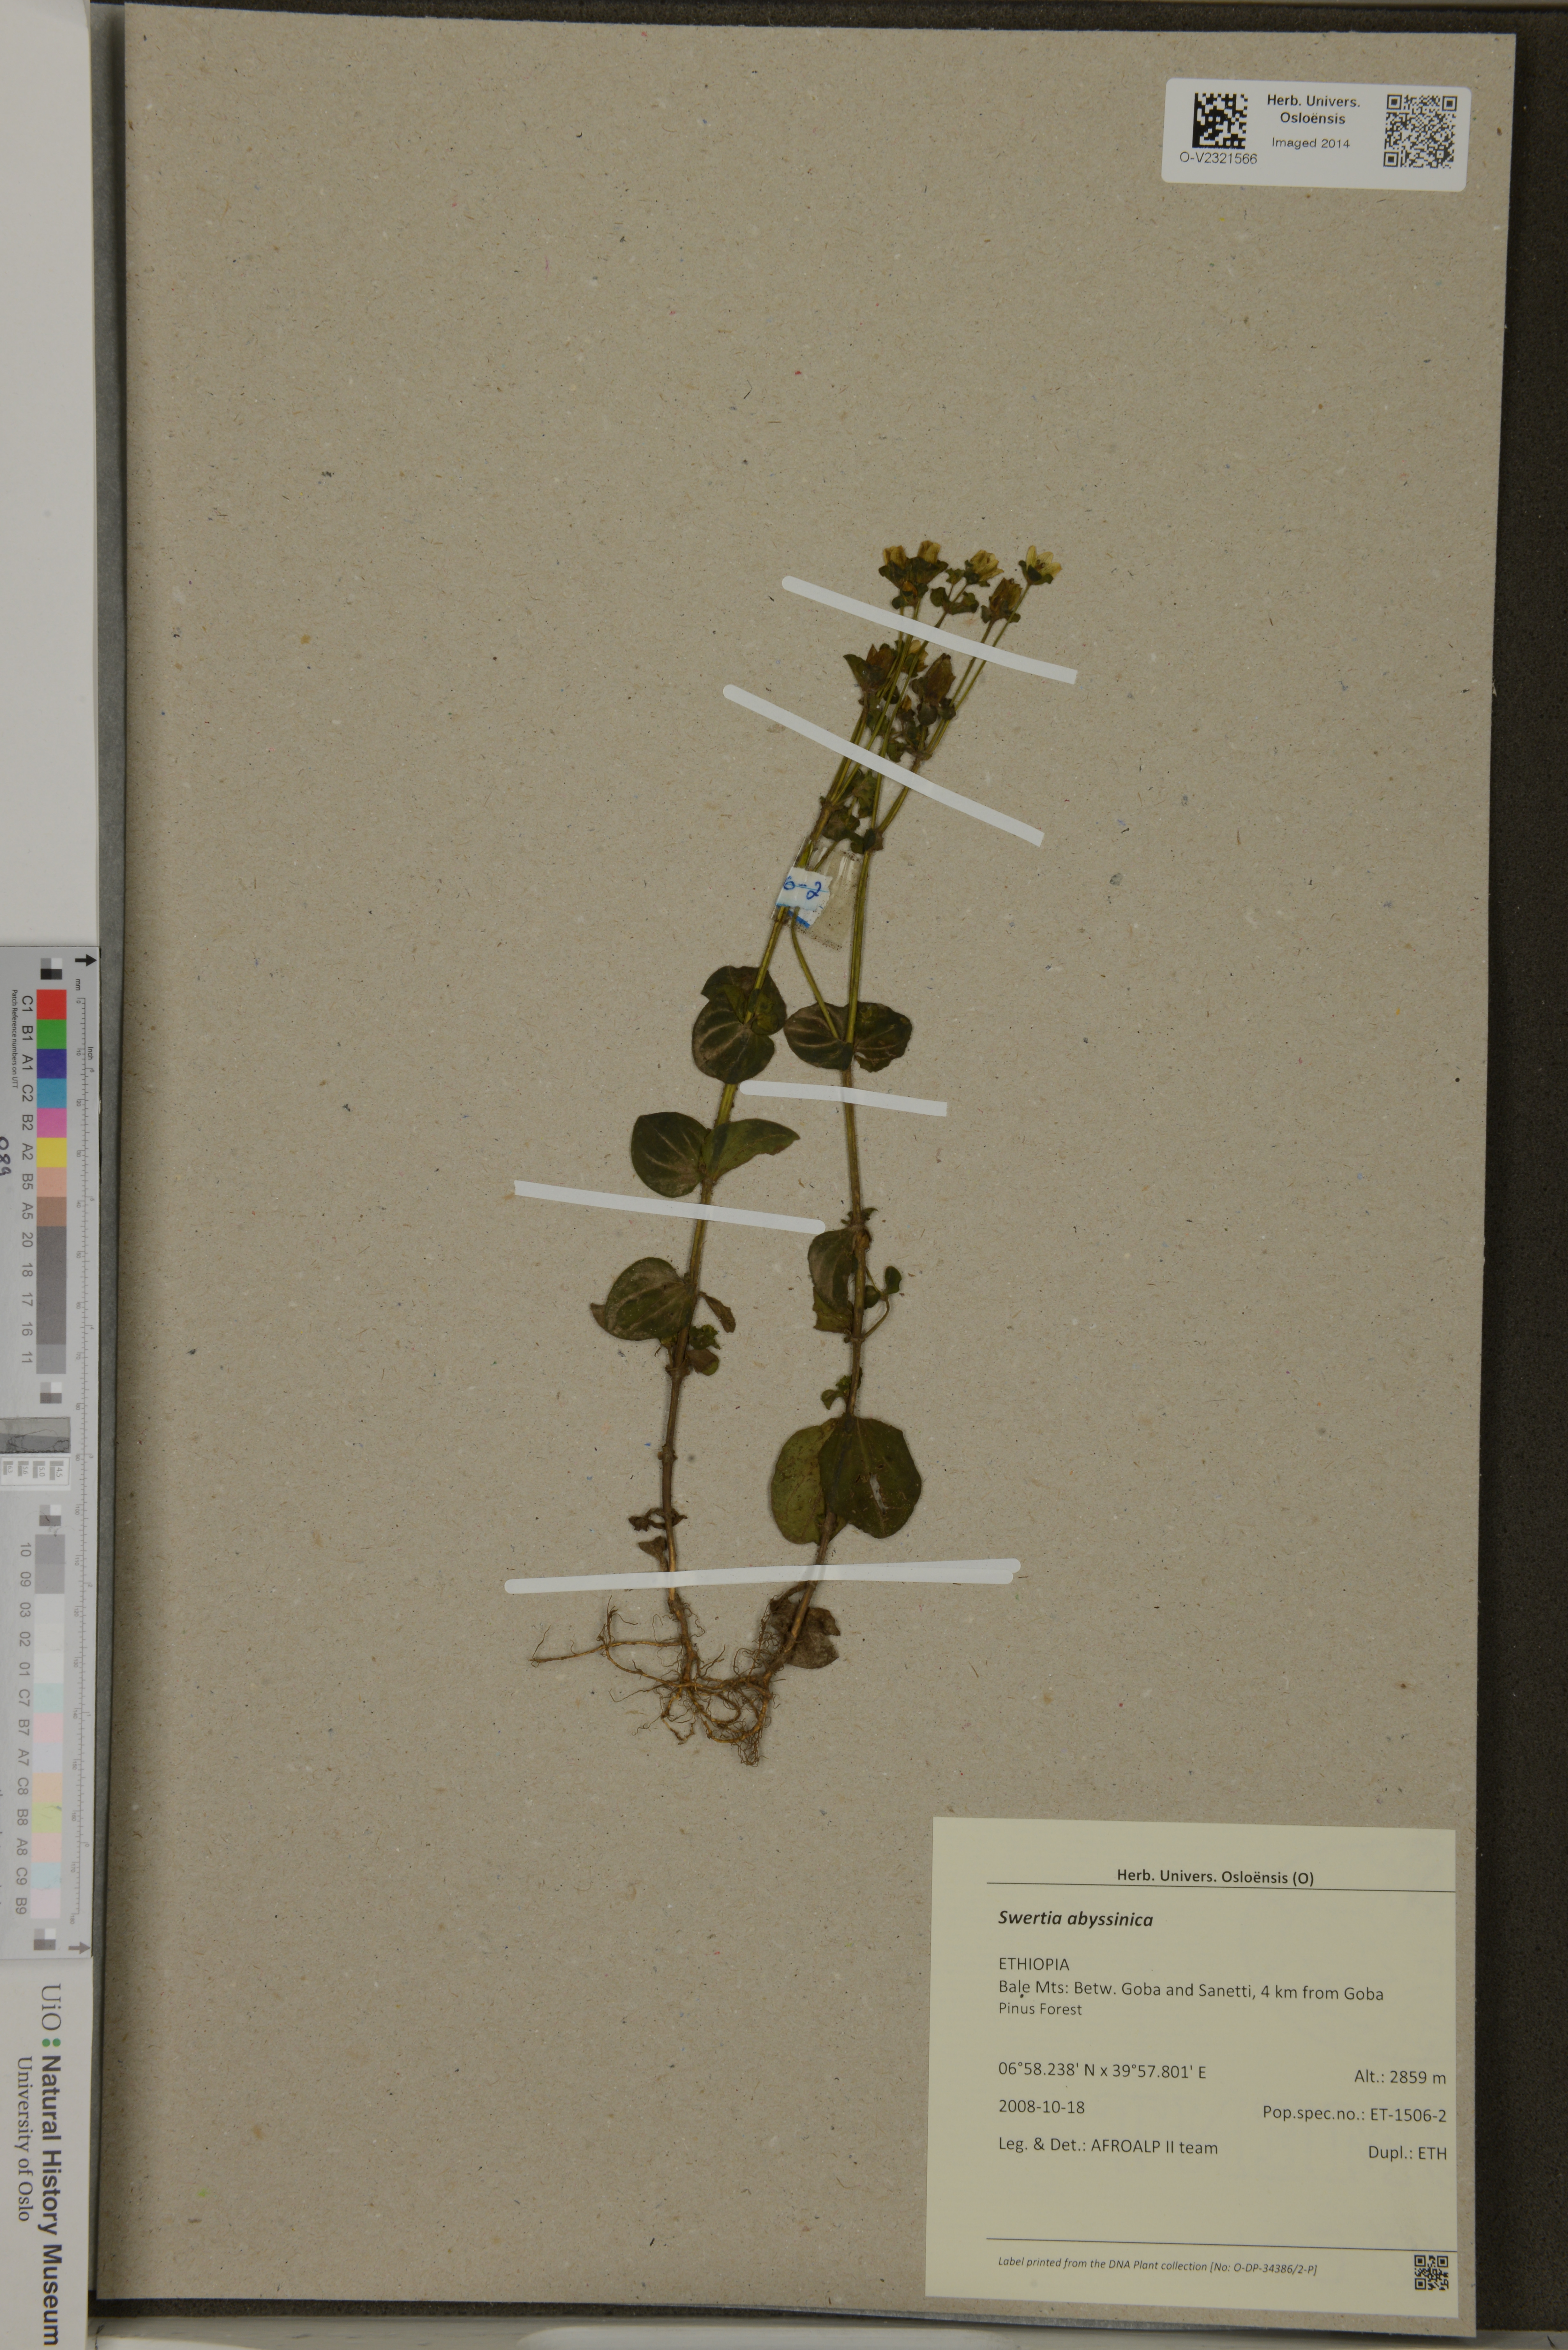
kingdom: Plantae
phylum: Tracheophyta
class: Magnoliopsida
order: Gentianales
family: Gentianaceae
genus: Swertia
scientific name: Swertia abyssinica
